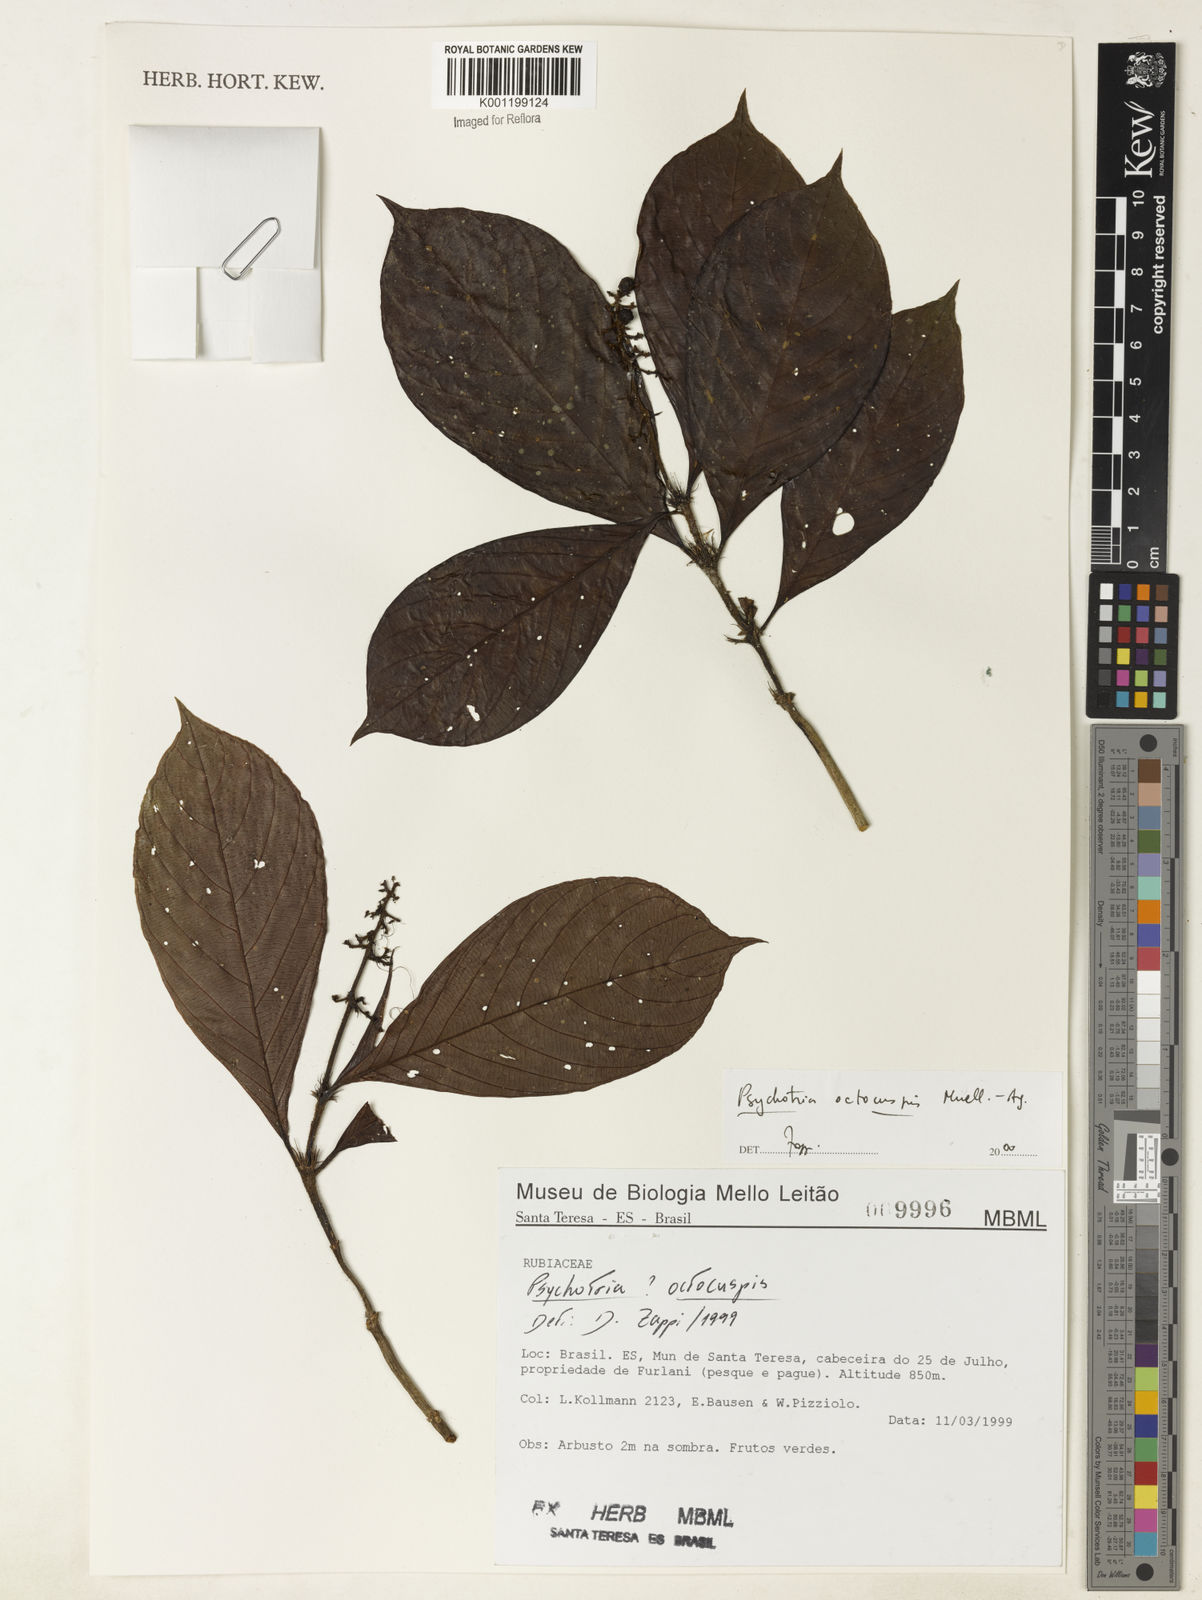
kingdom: Plantae
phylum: Tracheophyta
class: Magnoliopsida
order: Gentianales
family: Rubiaceae
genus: Psychotria
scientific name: Psychotria
